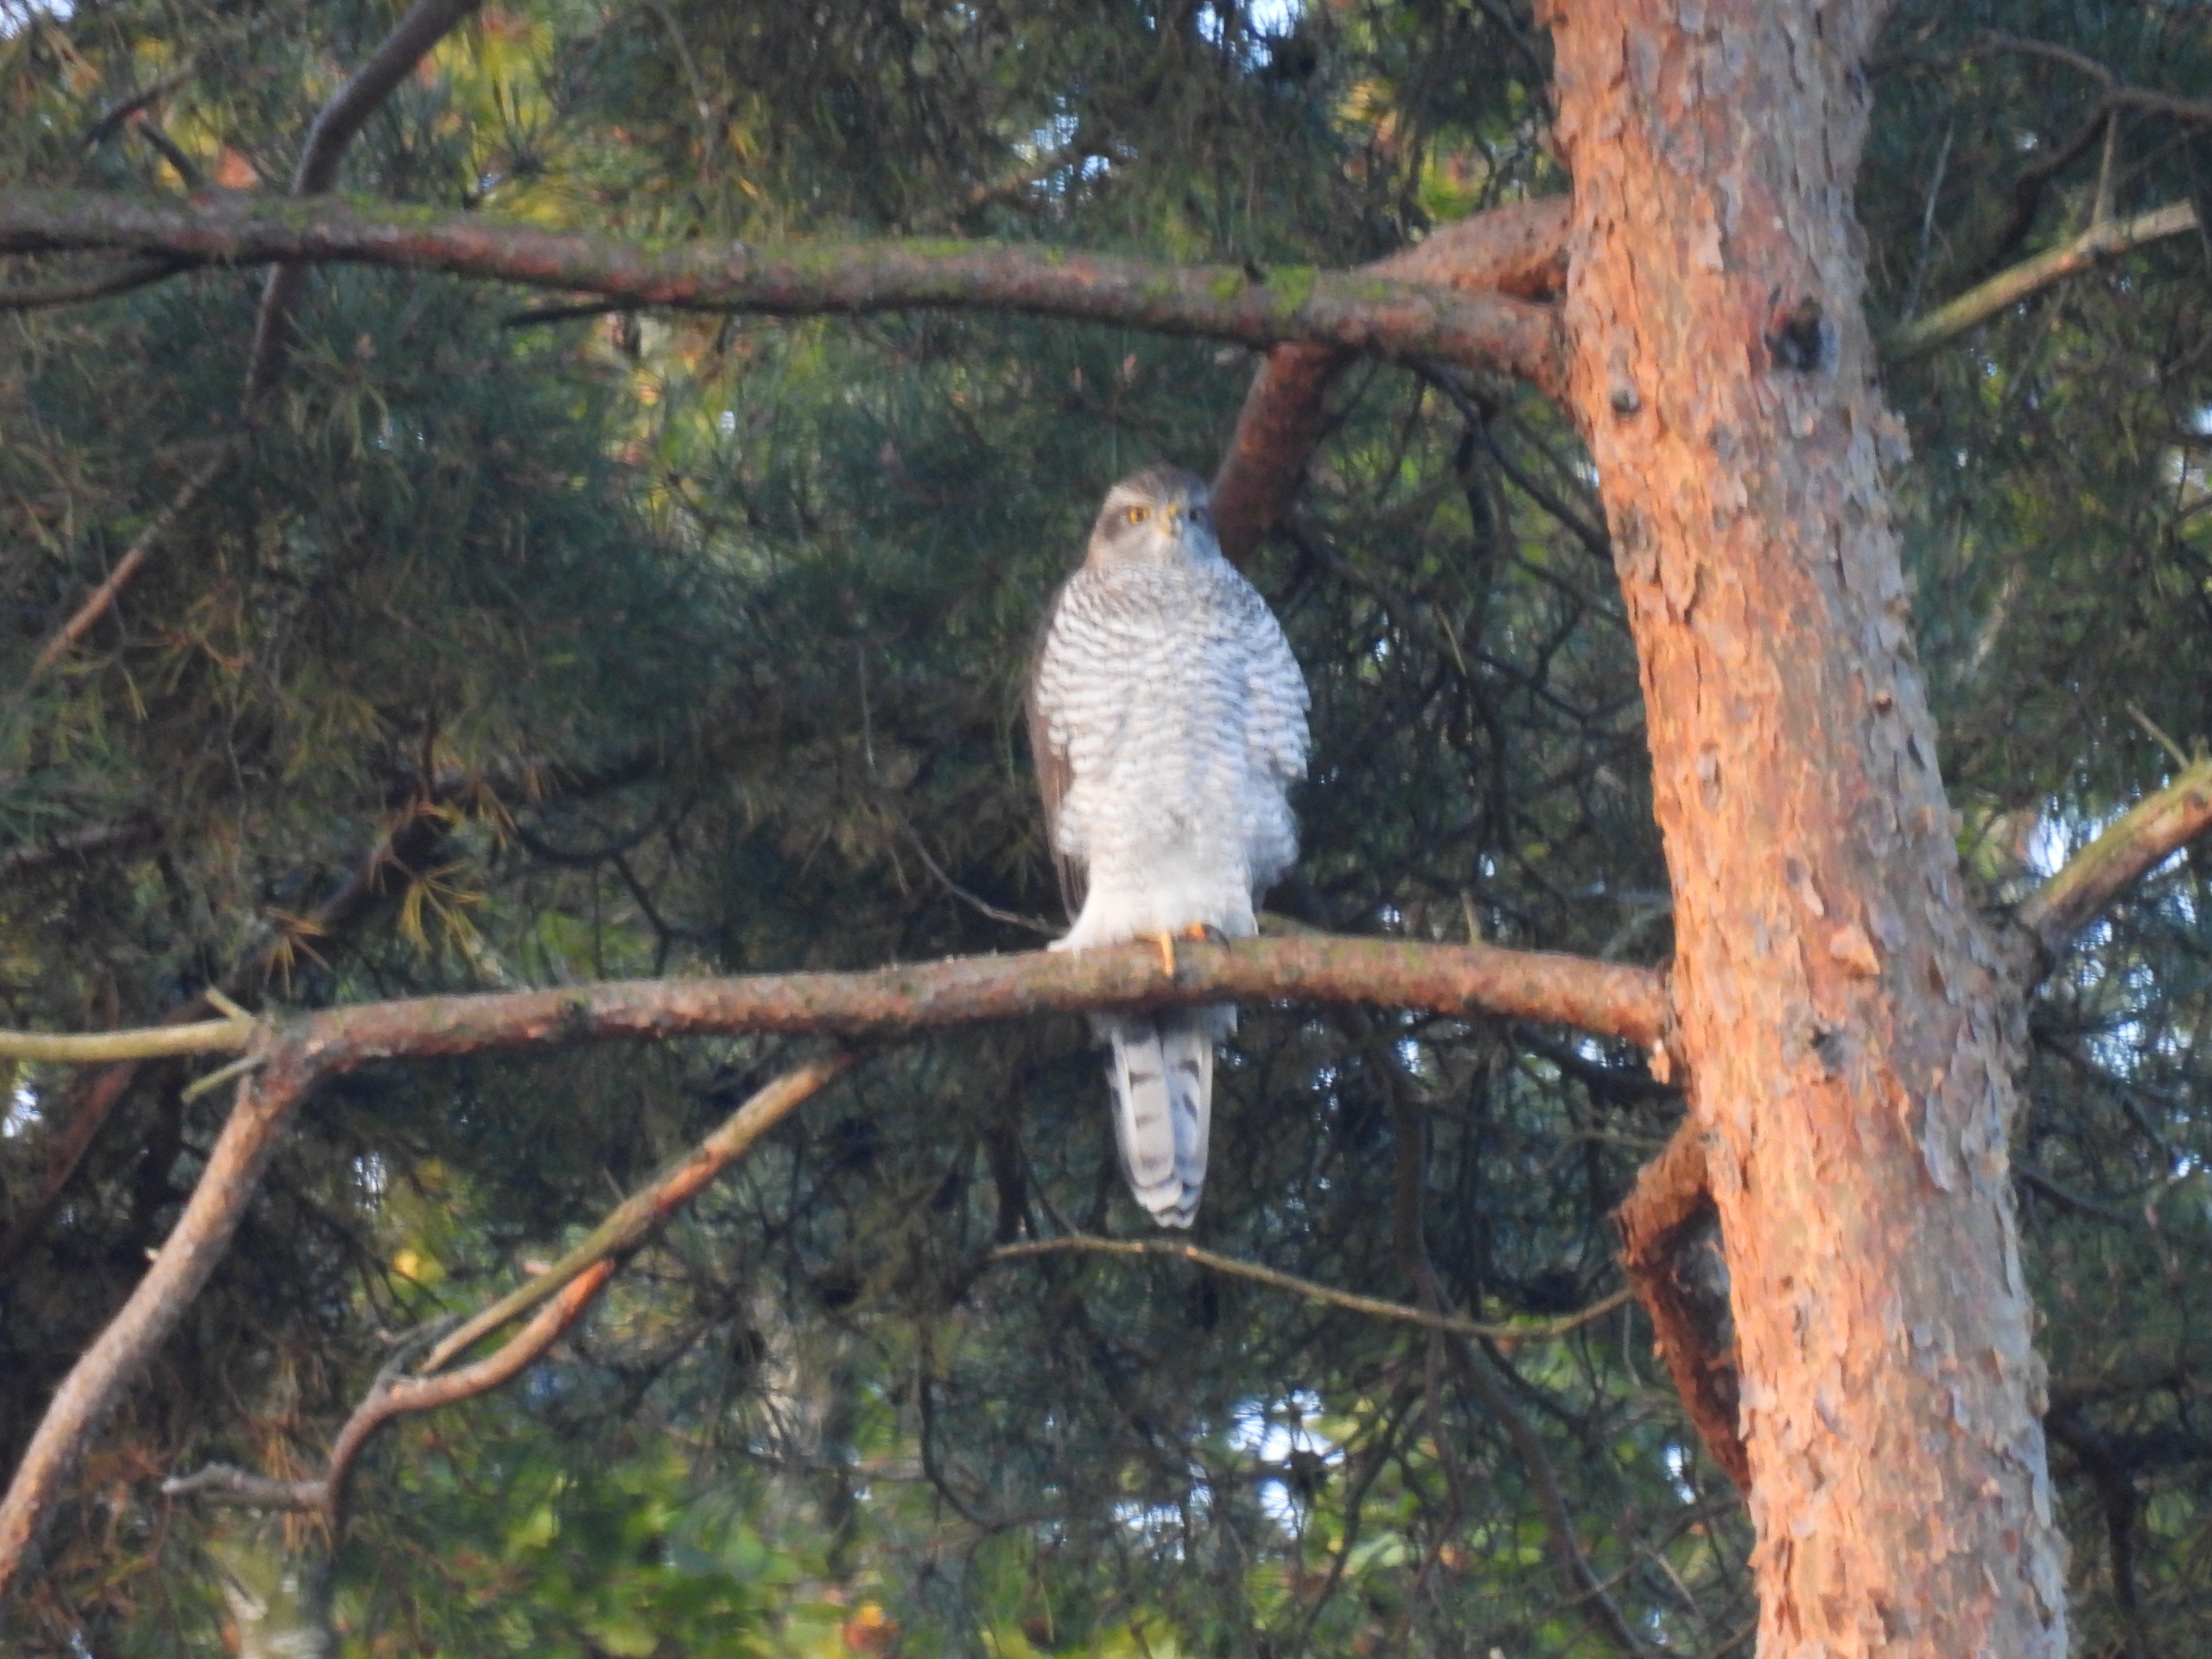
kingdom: Animalia
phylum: Chordata
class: Aves
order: Accipitriformes
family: Accipitridae
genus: Accipiter
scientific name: Accipiter nisus
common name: Spurvehøg
